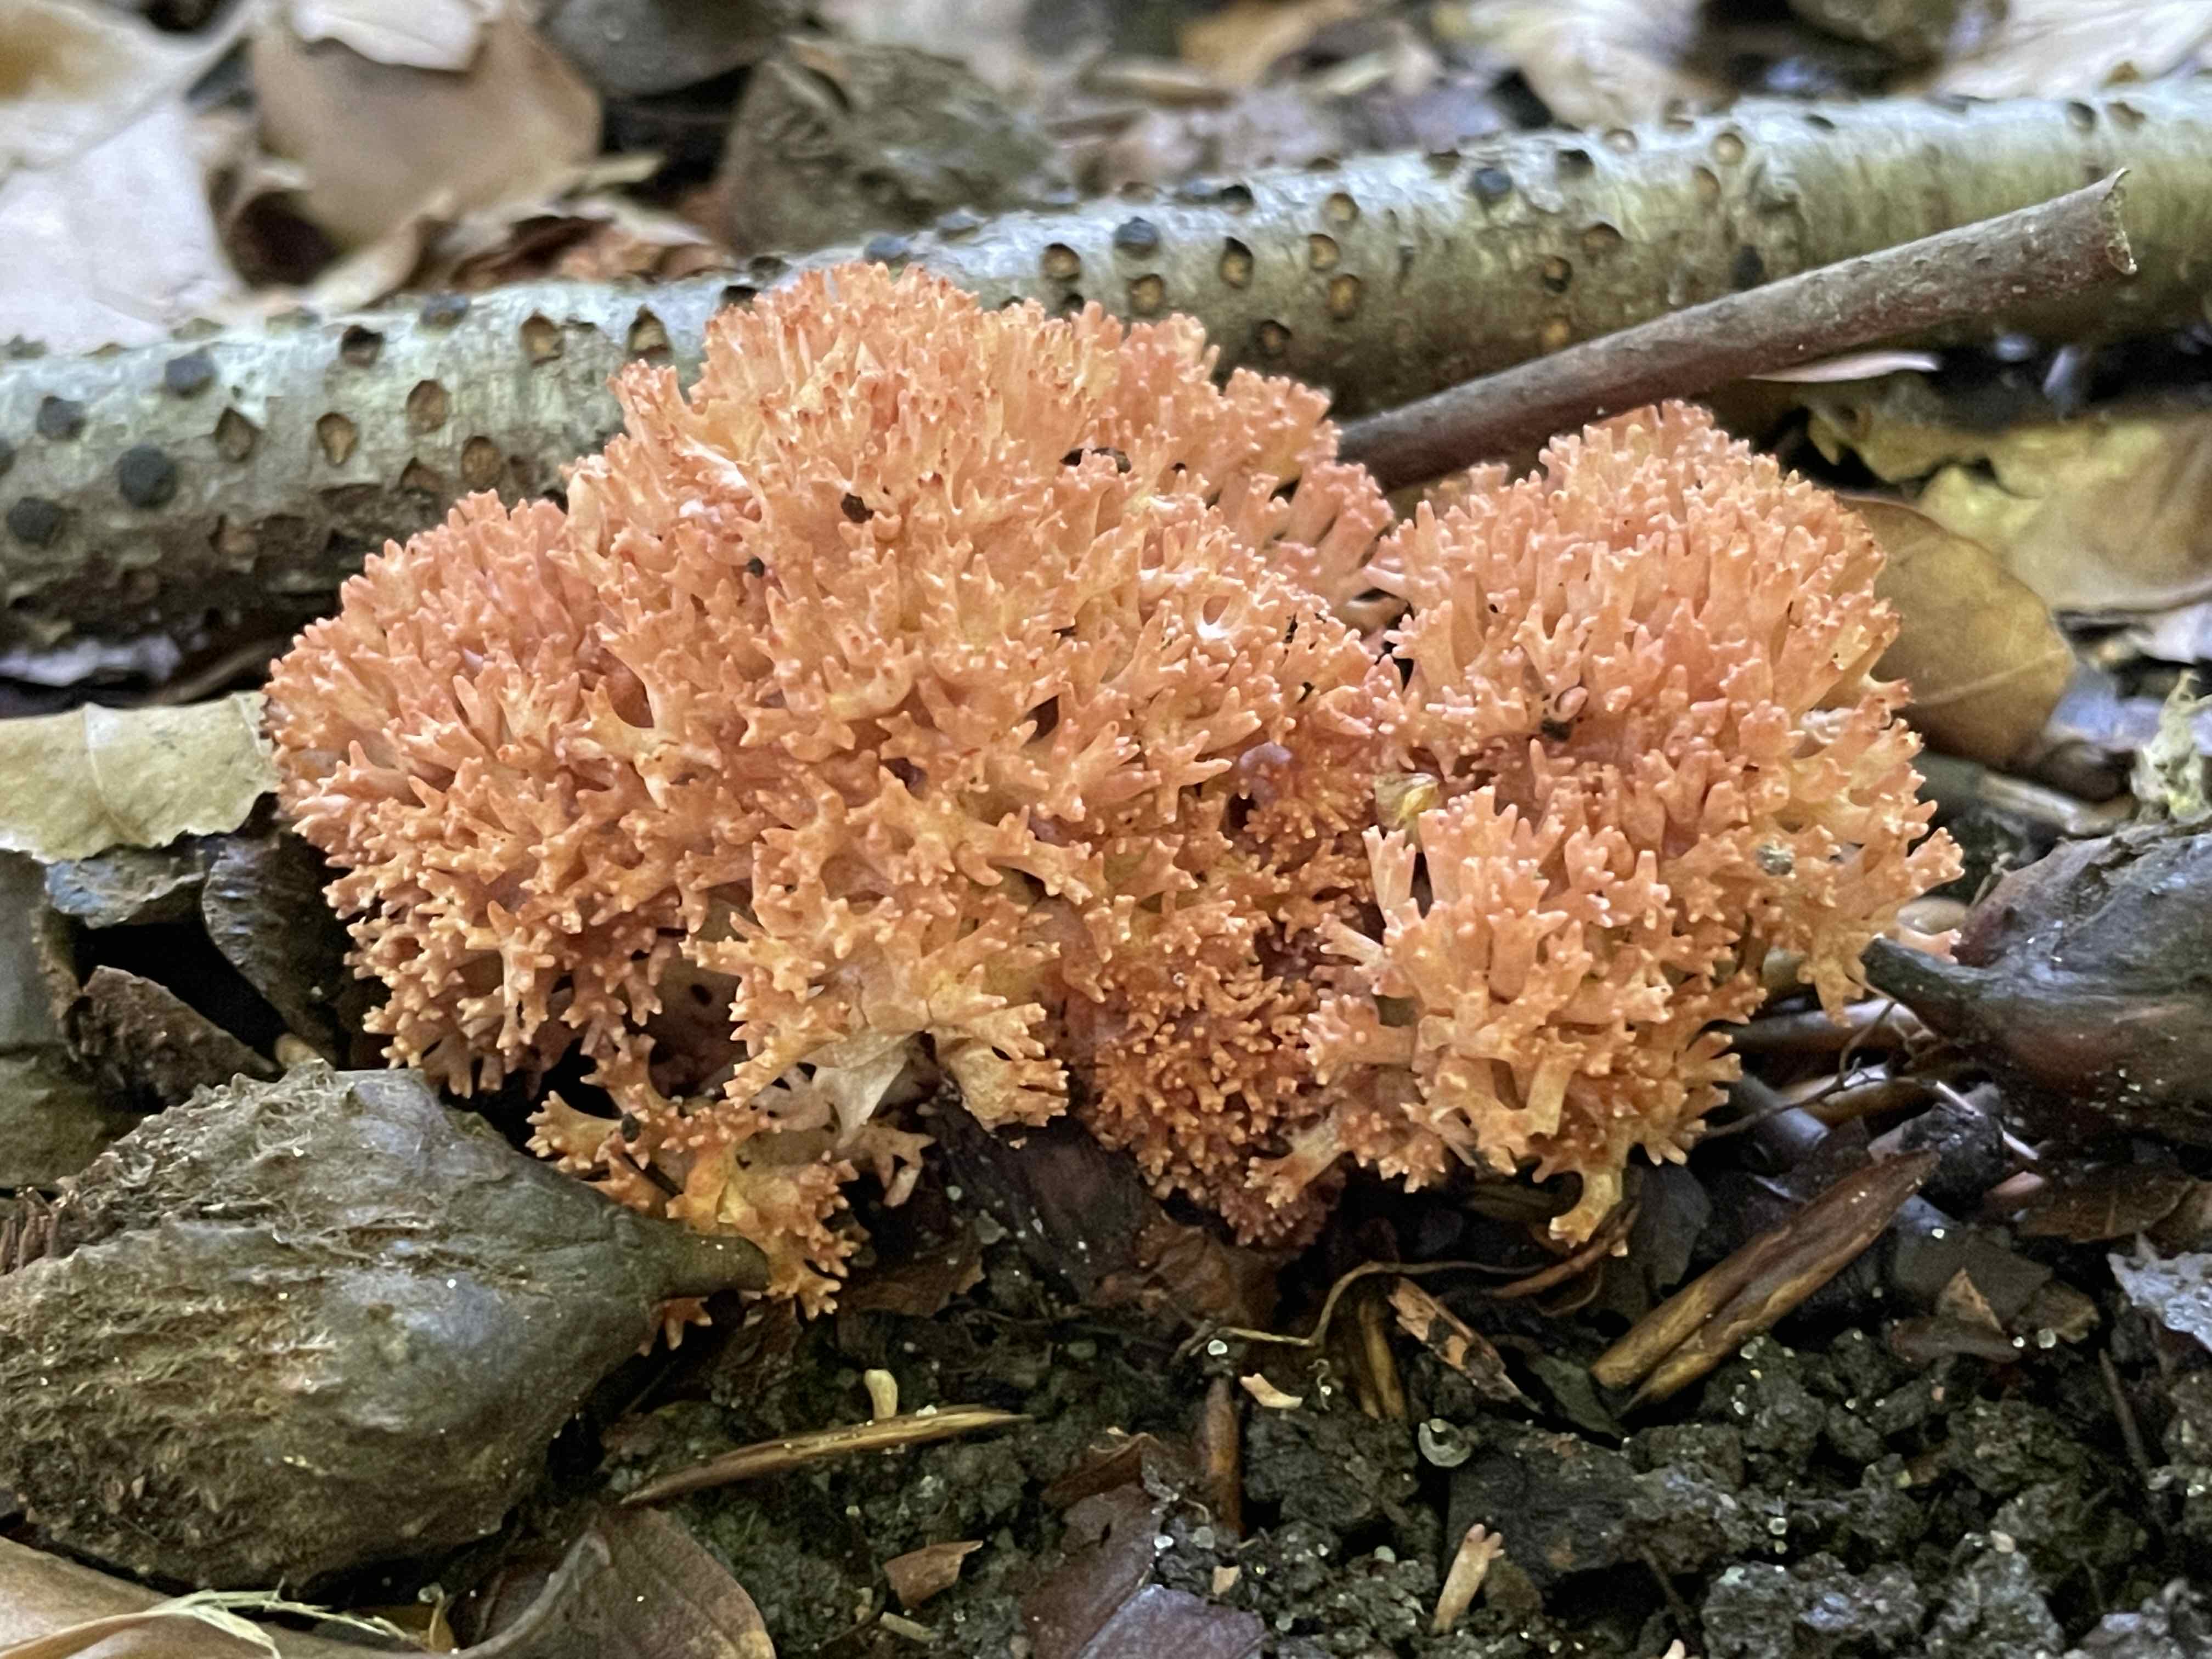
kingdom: Fungi
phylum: Basidiomycota
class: Agaricomycetes
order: Gomphales
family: Gomphaceae
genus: Ramaria
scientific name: Ramaria botrytis
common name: drue-koralsvamp
